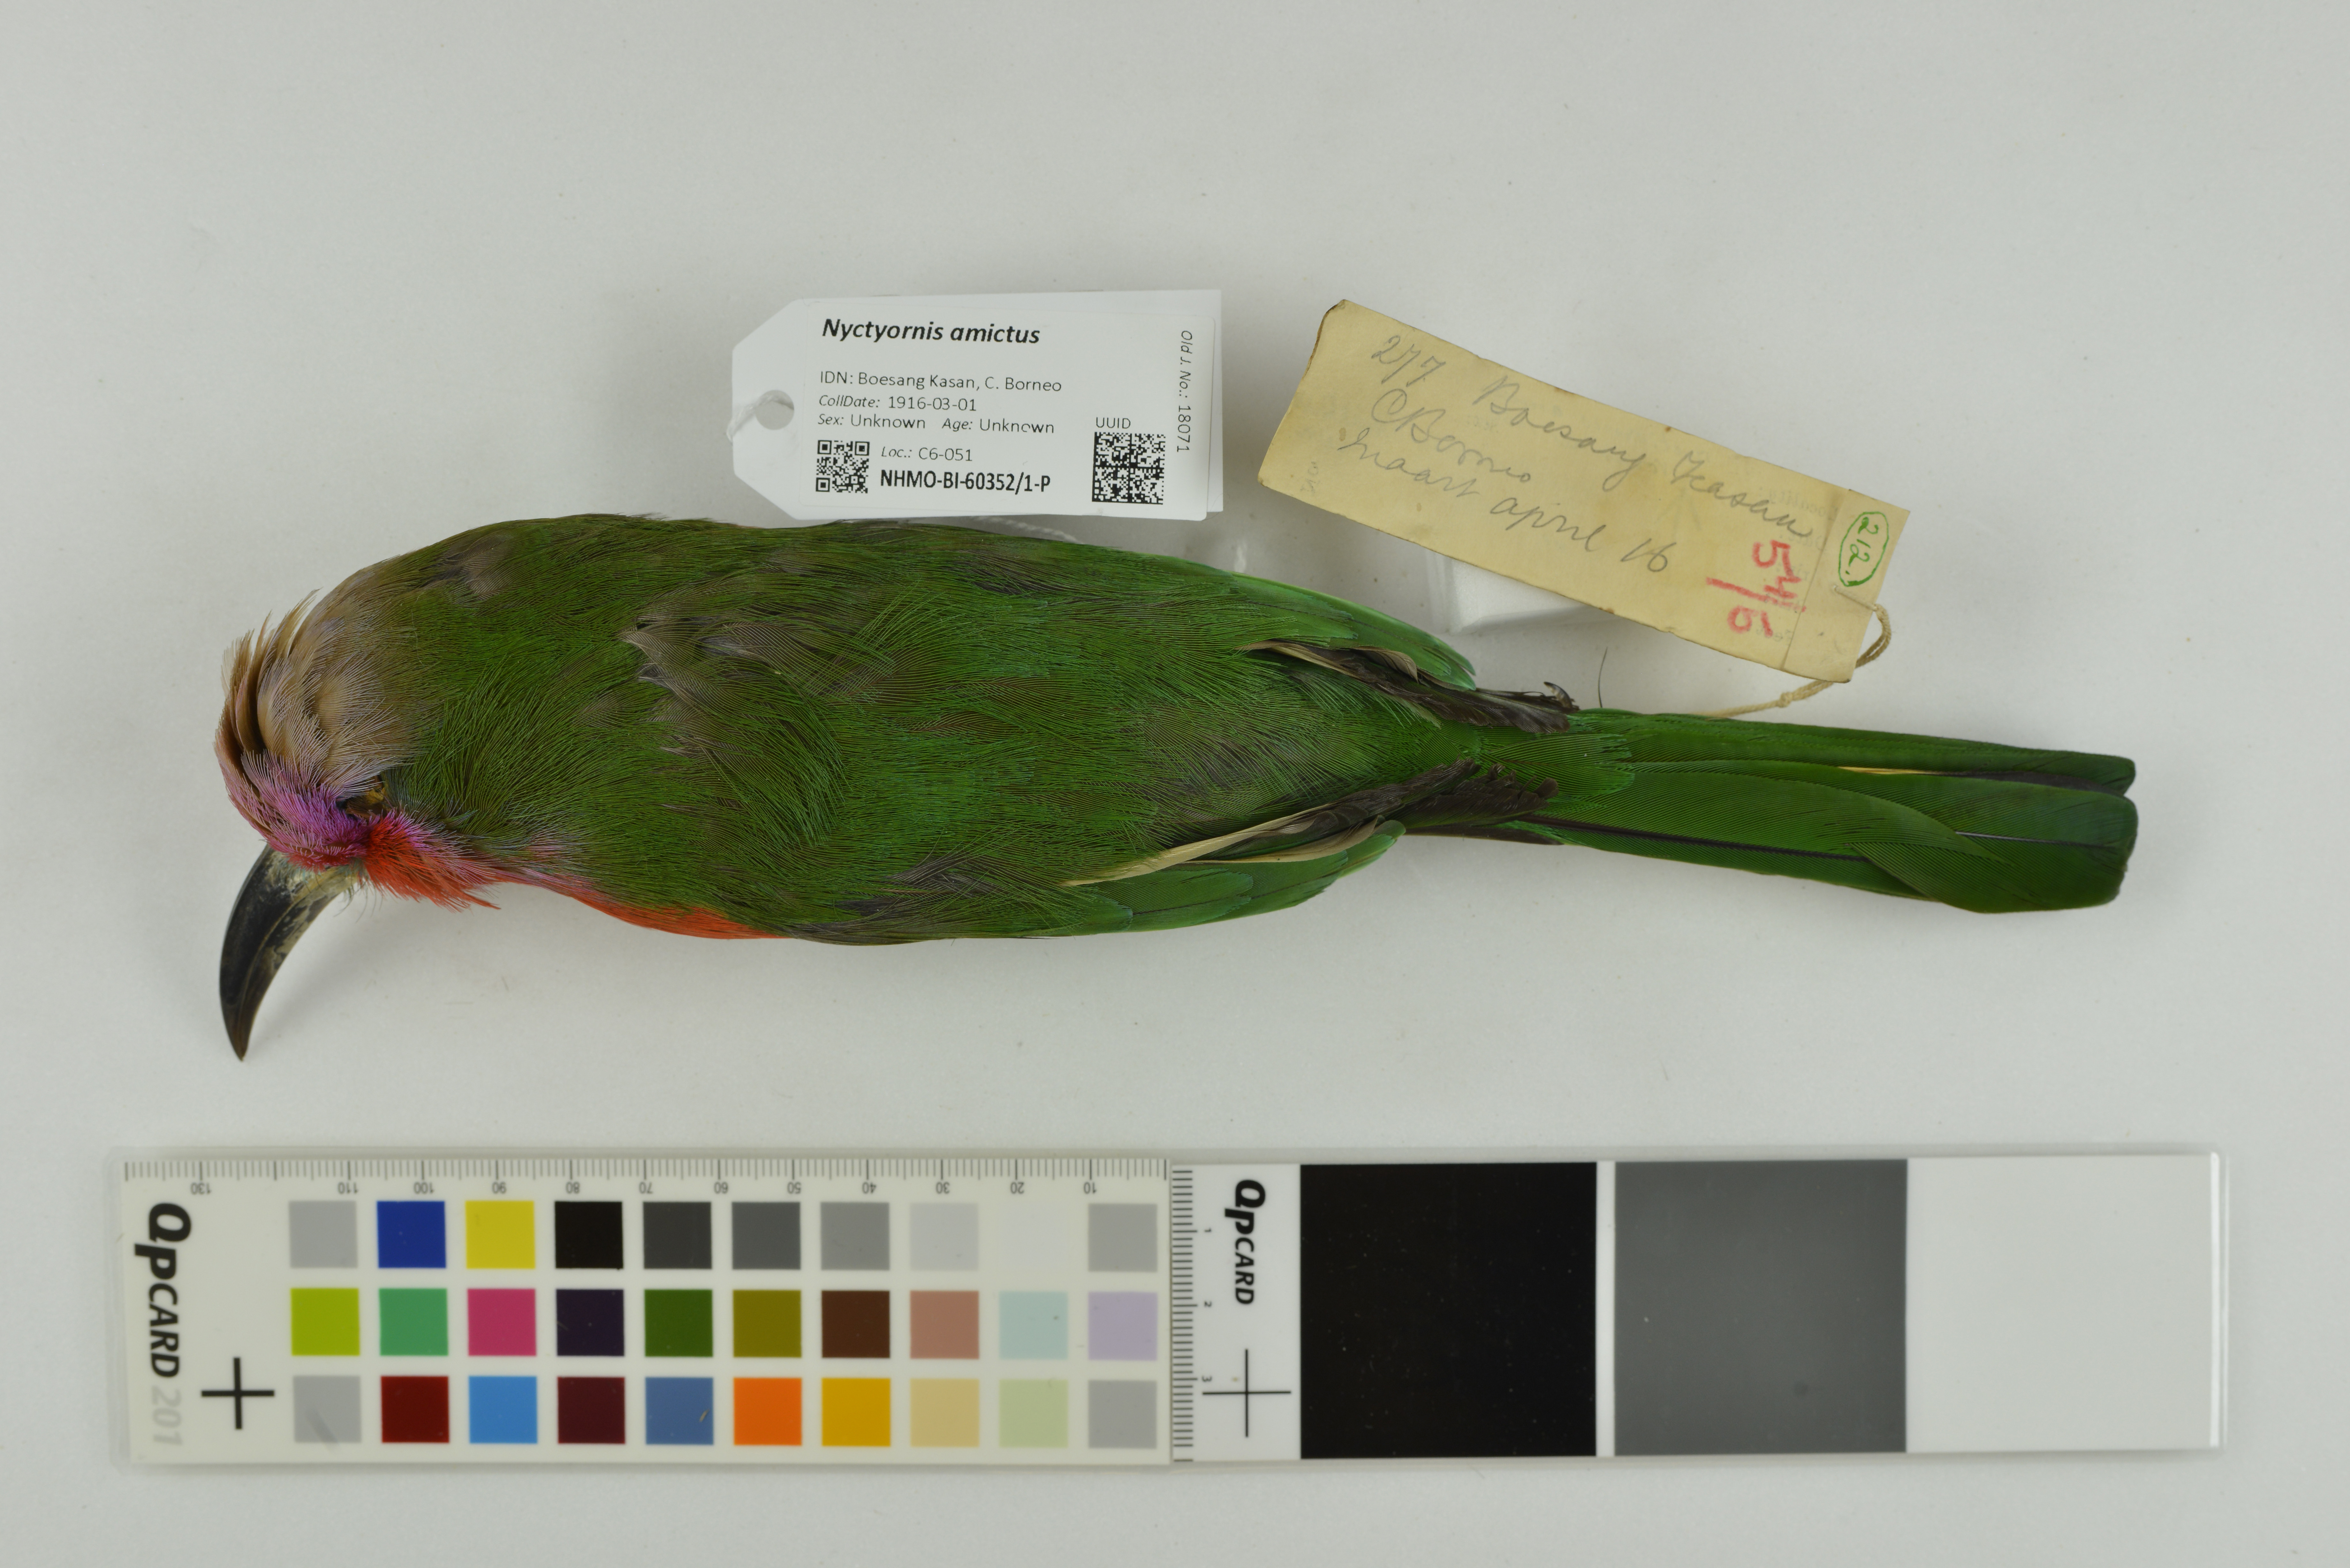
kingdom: Animalia
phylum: Chordata
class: Aves
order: Coraciiformes
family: Meropidae
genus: Nyctyornis
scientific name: Nyctyornis amictus
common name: Red-bearded bee-eater
